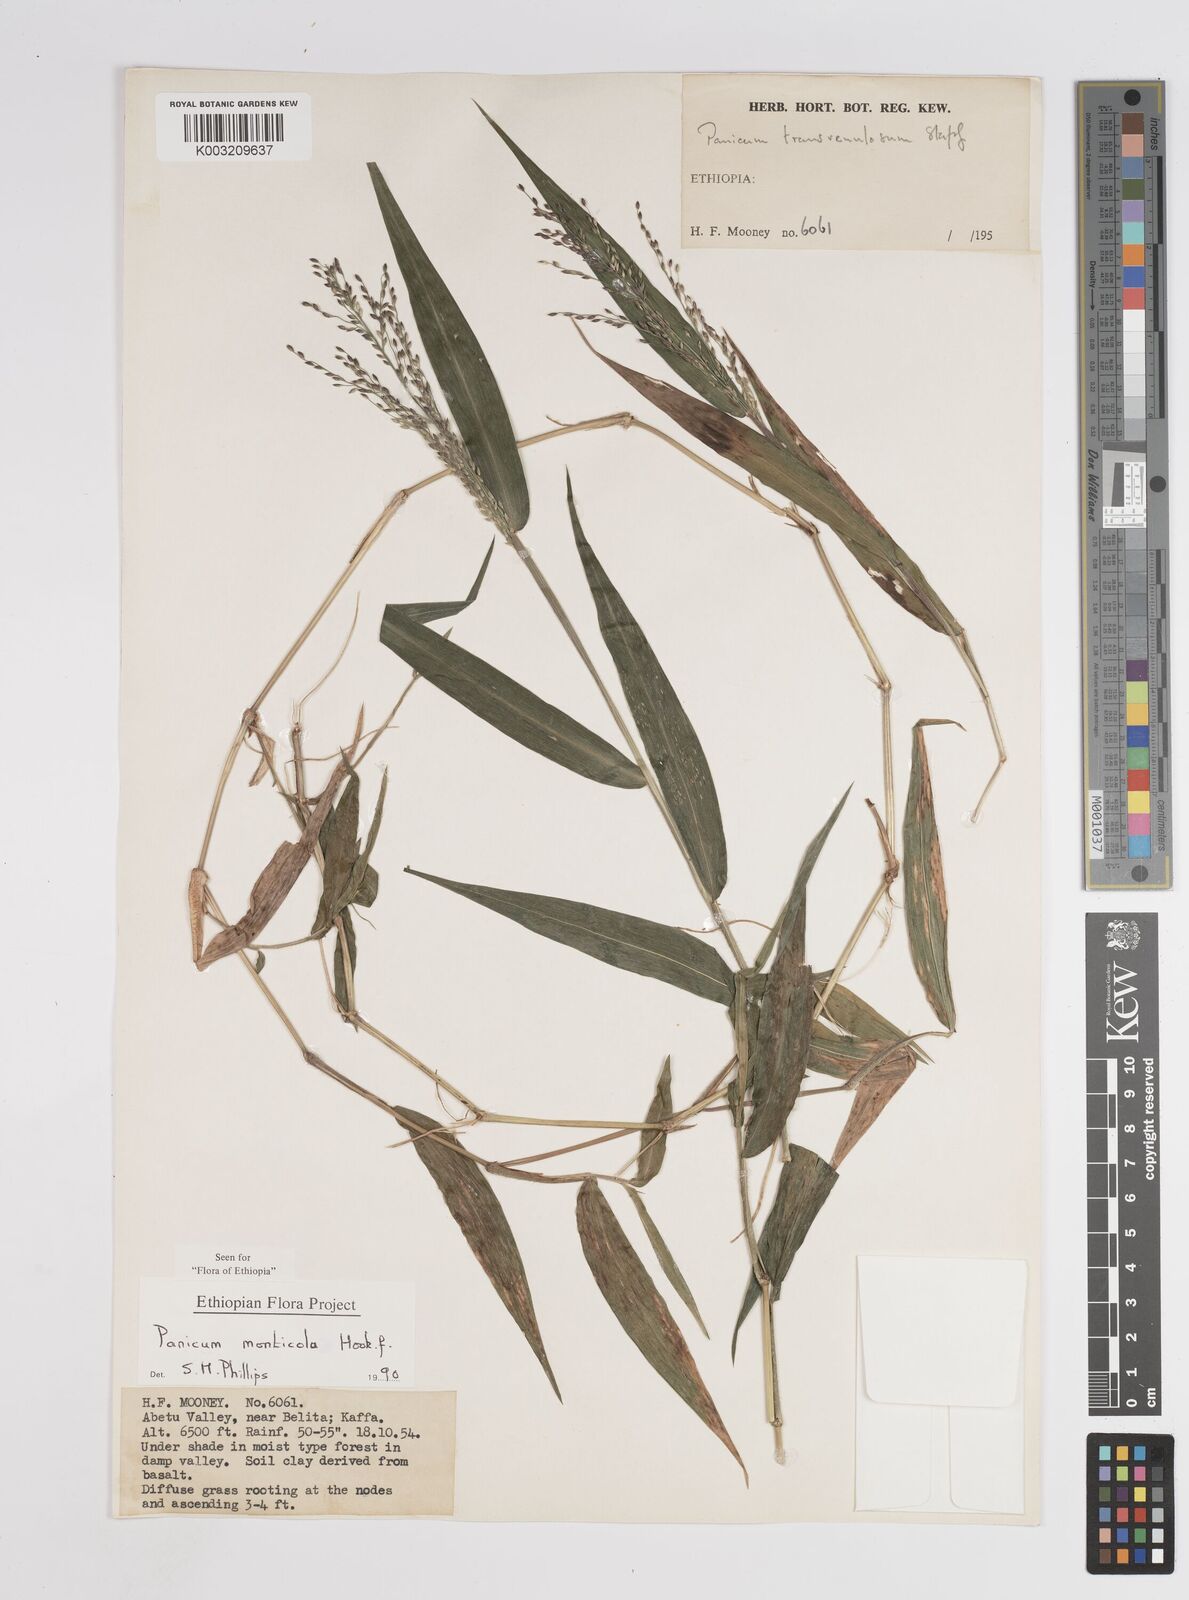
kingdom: Plantae
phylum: Tracheophyta
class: Liliopsida
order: Poales
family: Poaceae
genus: Panicum
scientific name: Panicum monticola
